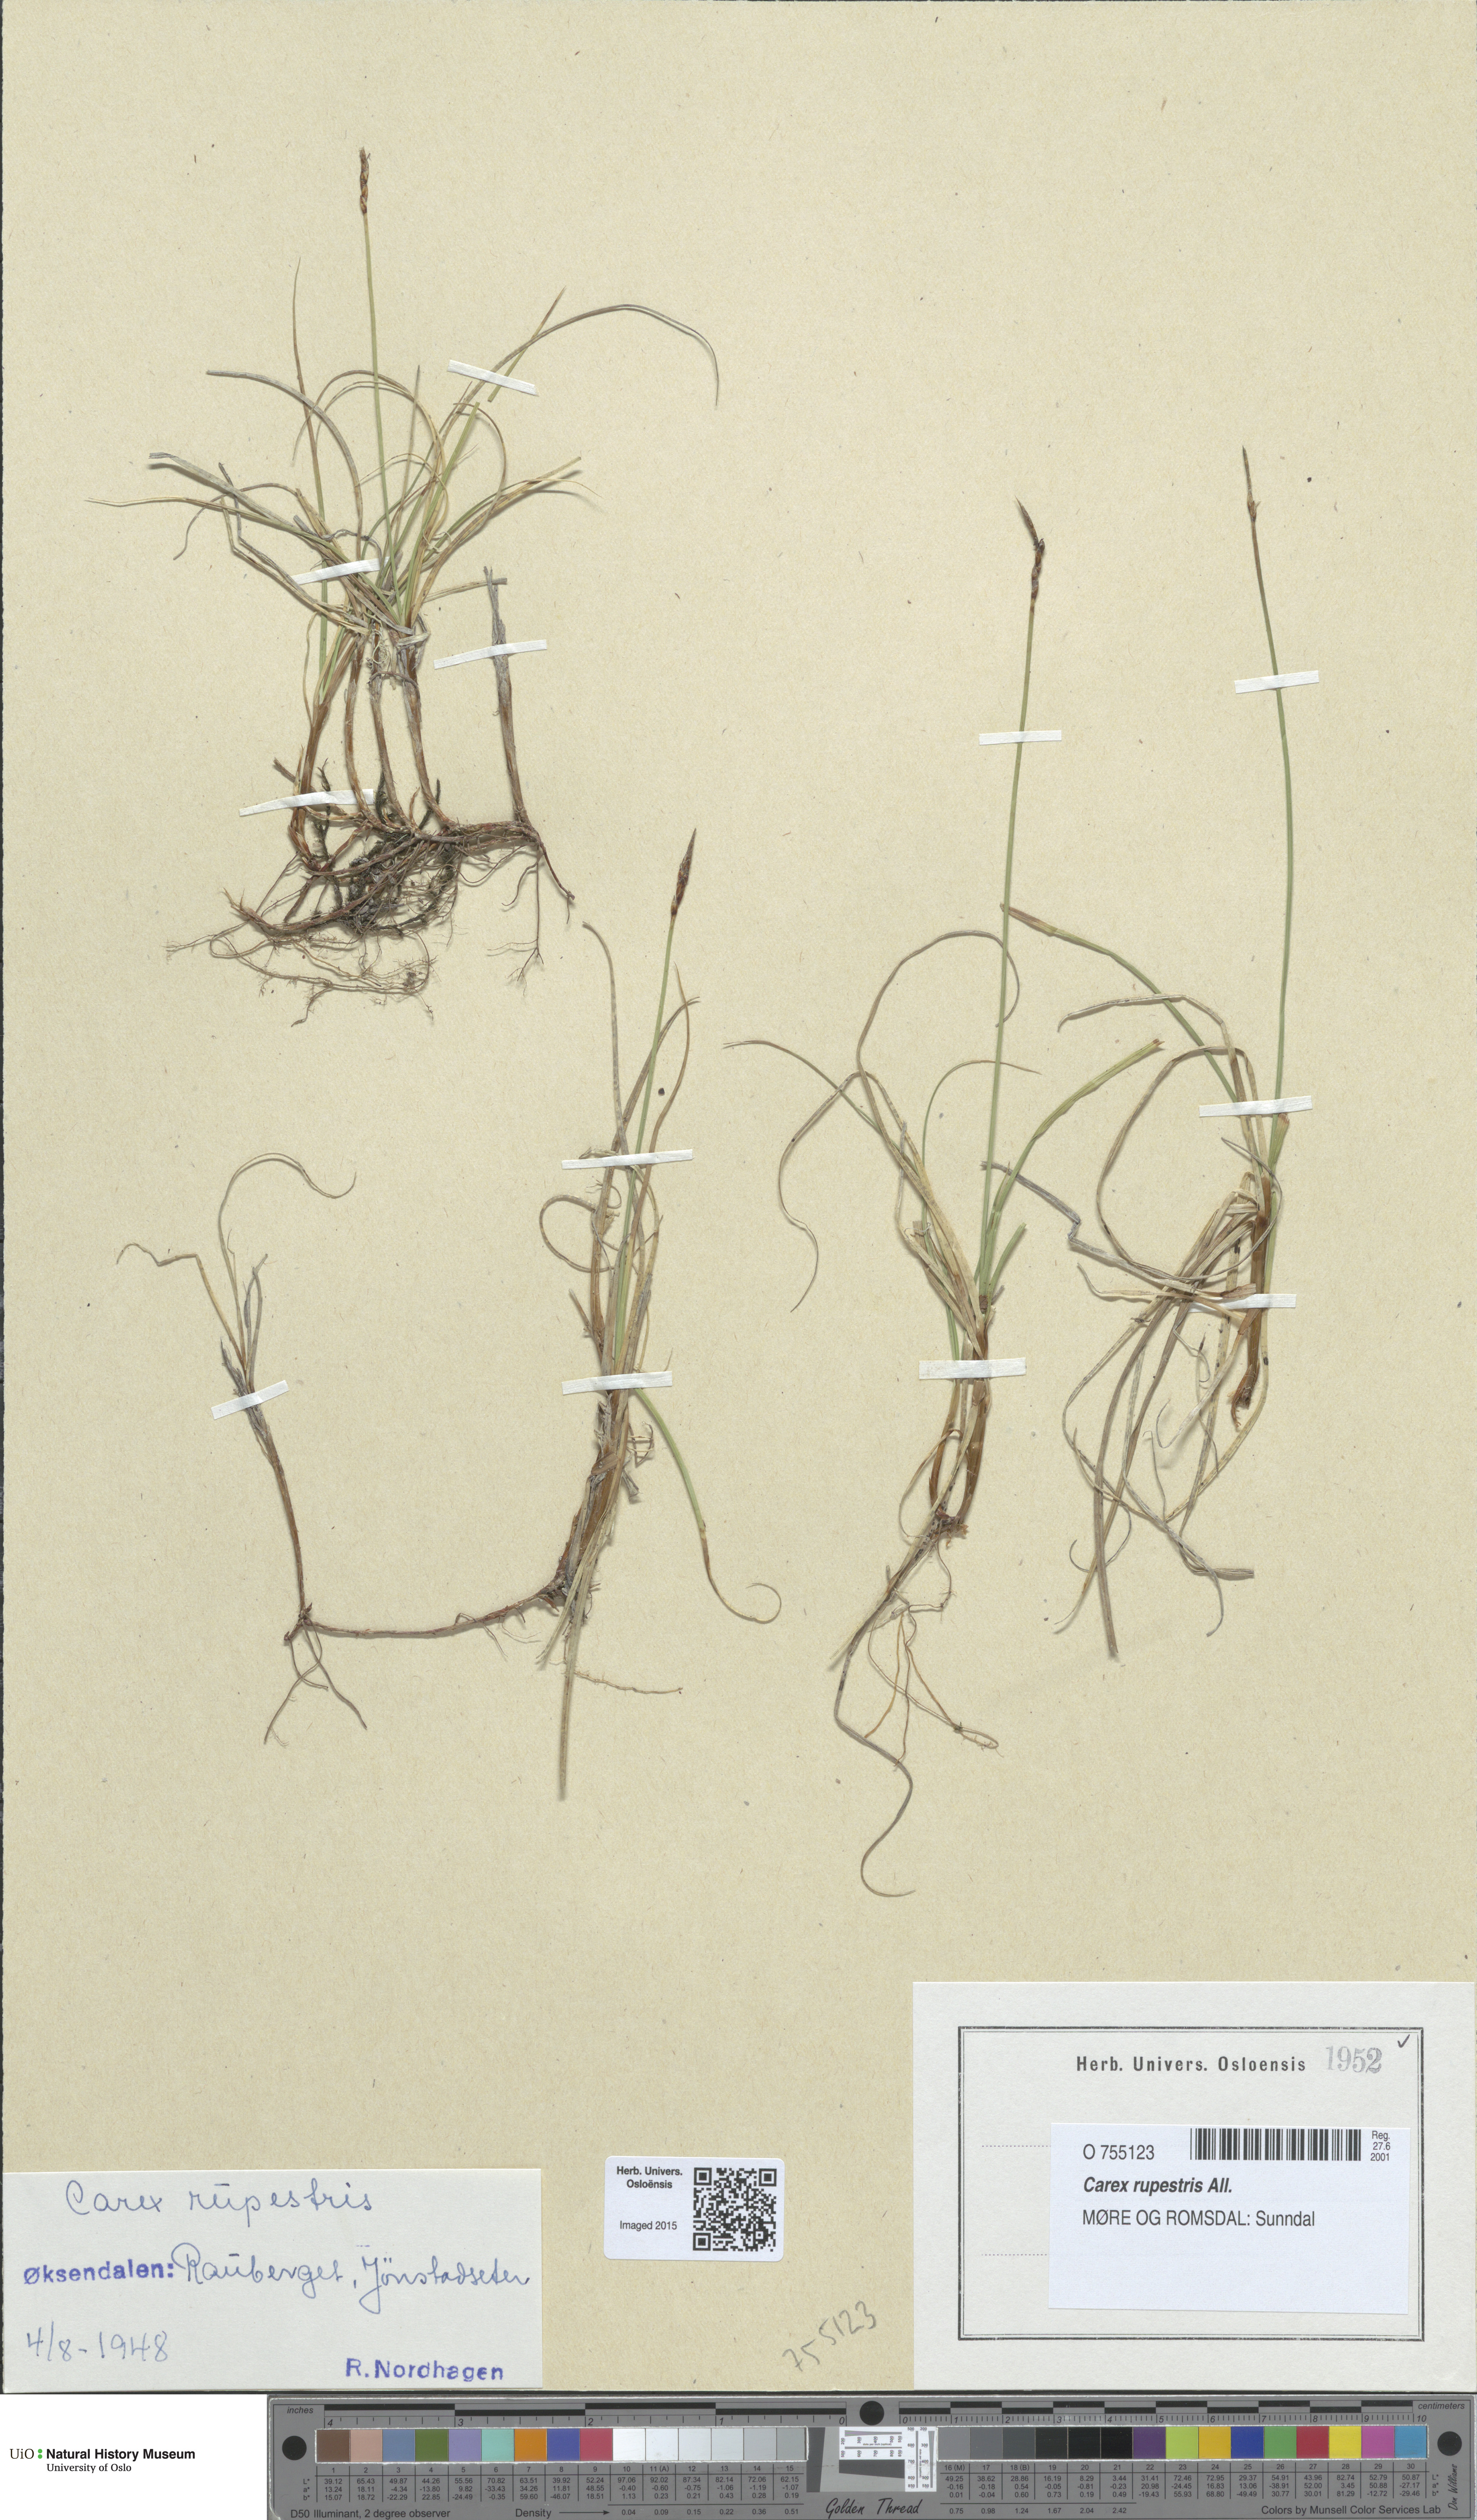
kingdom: Plantae
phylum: Tracheophyta
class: Liliopsida
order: Poales
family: Cyperaceae
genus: Carex
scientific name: Carex rupestris
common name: Rock sedge
